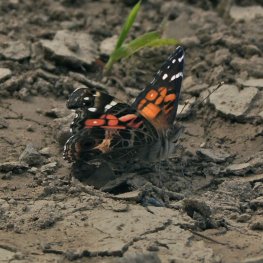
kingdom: Animalia
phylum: Arthropoda
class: Insecta
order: Lepidoptera
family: Nymphalidae
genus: Vanessa
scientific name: Vanessa virginiensis
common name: American Lady
